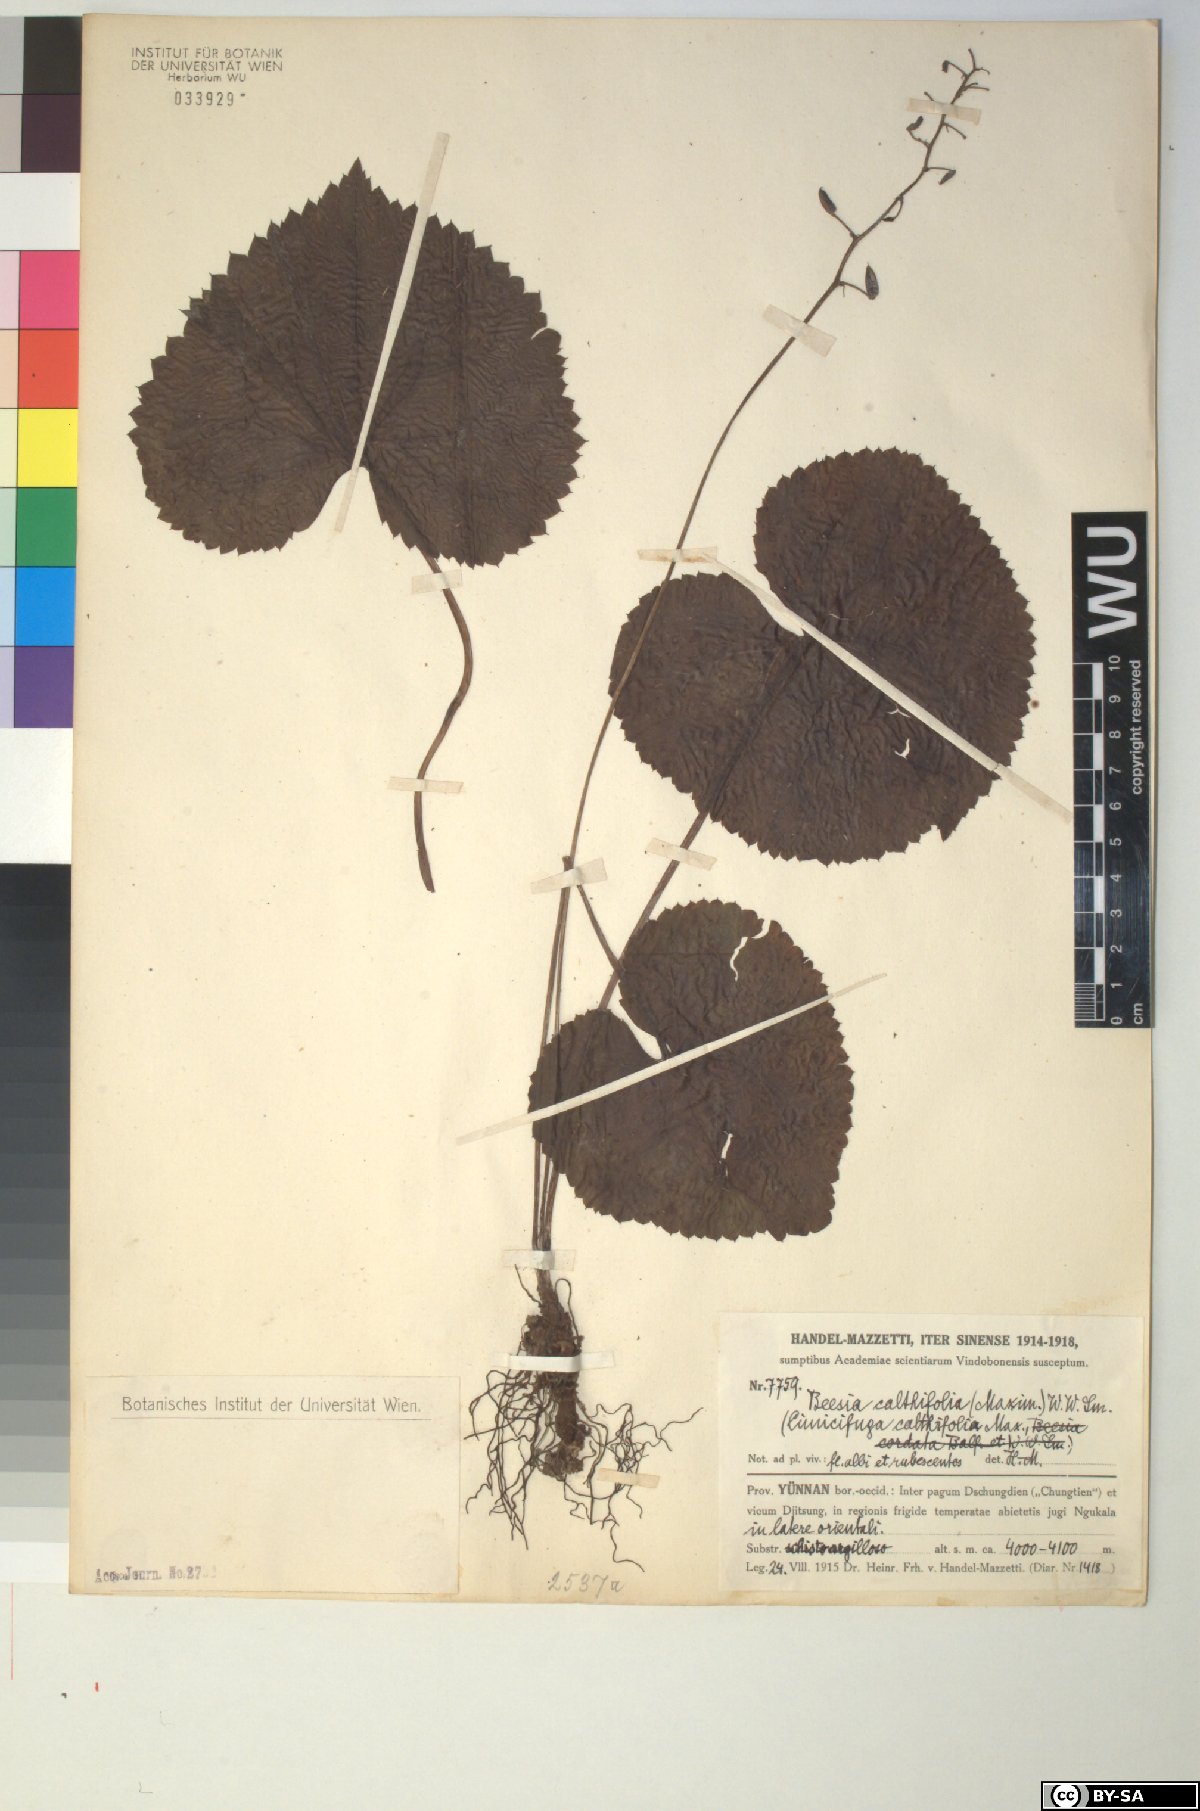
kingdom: Plantae
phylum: Tracheophyta
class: Magnoliopsida
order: Ranunculales
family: Ranunculaceae
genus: Beesia
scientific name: Beesia calthifolia
